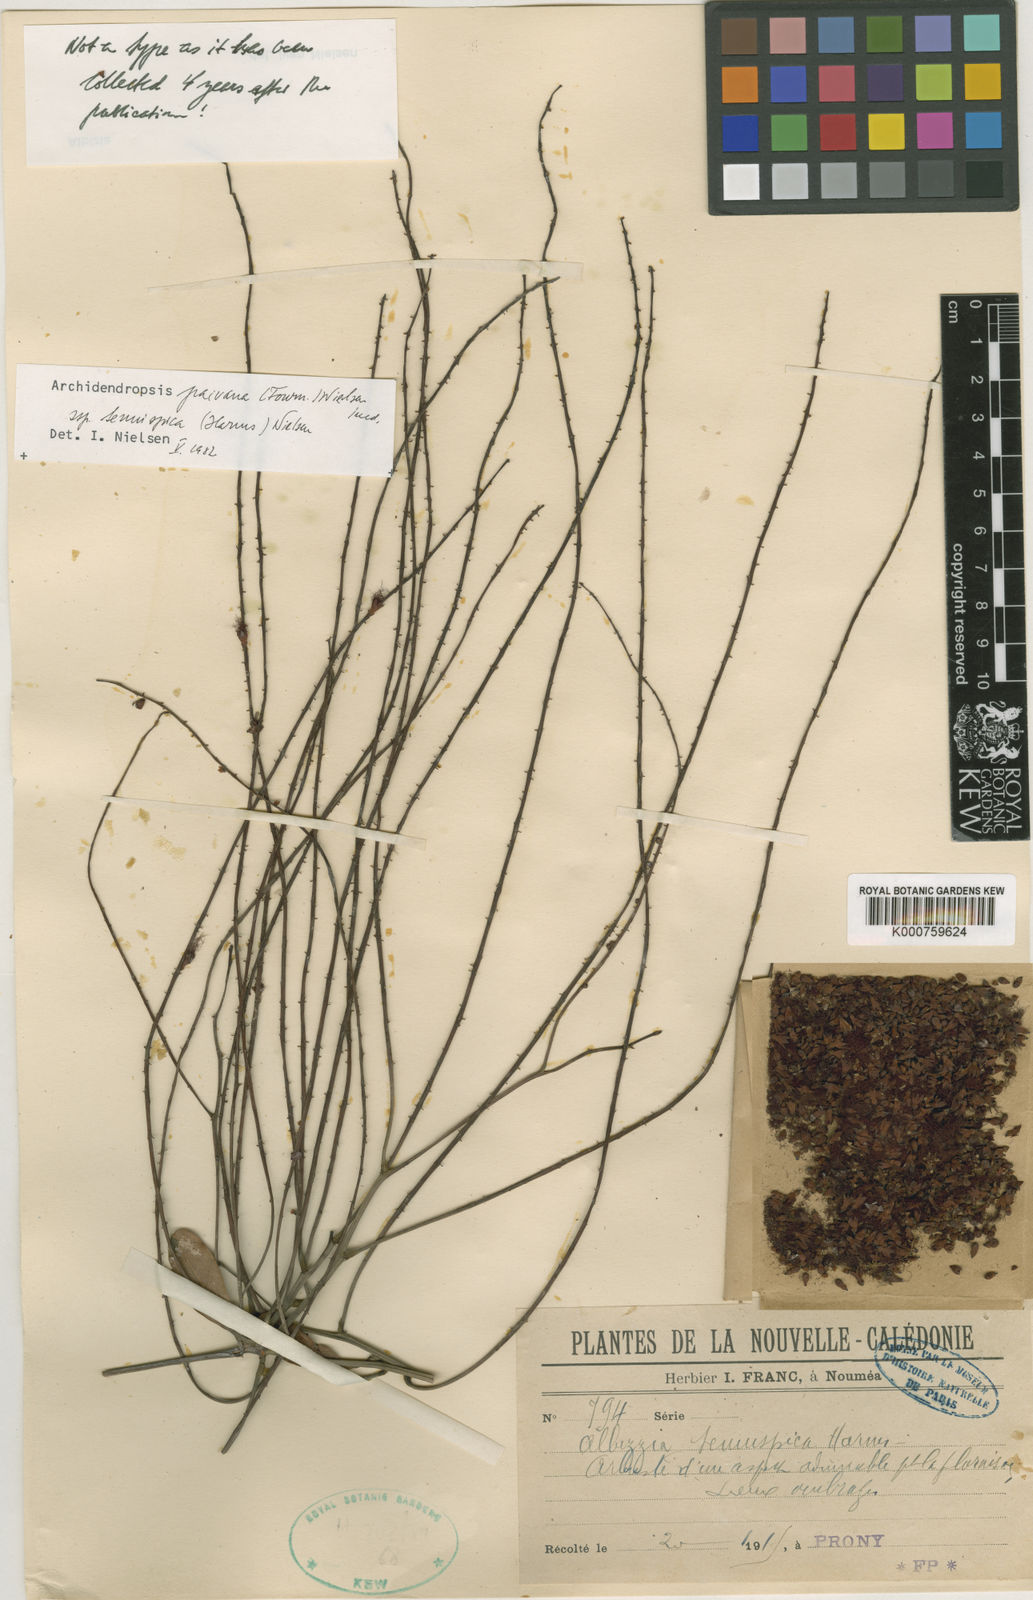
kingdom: Plantae
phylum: Tracheophyta
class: Magnoliopsida
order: Fabales
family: Fabaceae
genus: Archidendropsis
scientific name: Archidendropsis paivana
